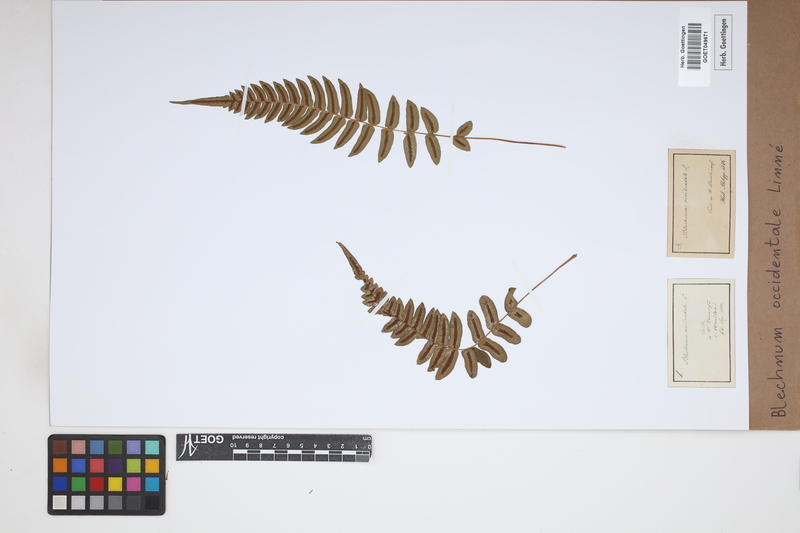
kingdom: Plantae
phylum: Tracheophyta
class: Polypodiopsida
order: Polypodiales
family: Blechnaceae
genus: Blechnum
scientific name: Blechnum occidentale
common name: Hammock fern
